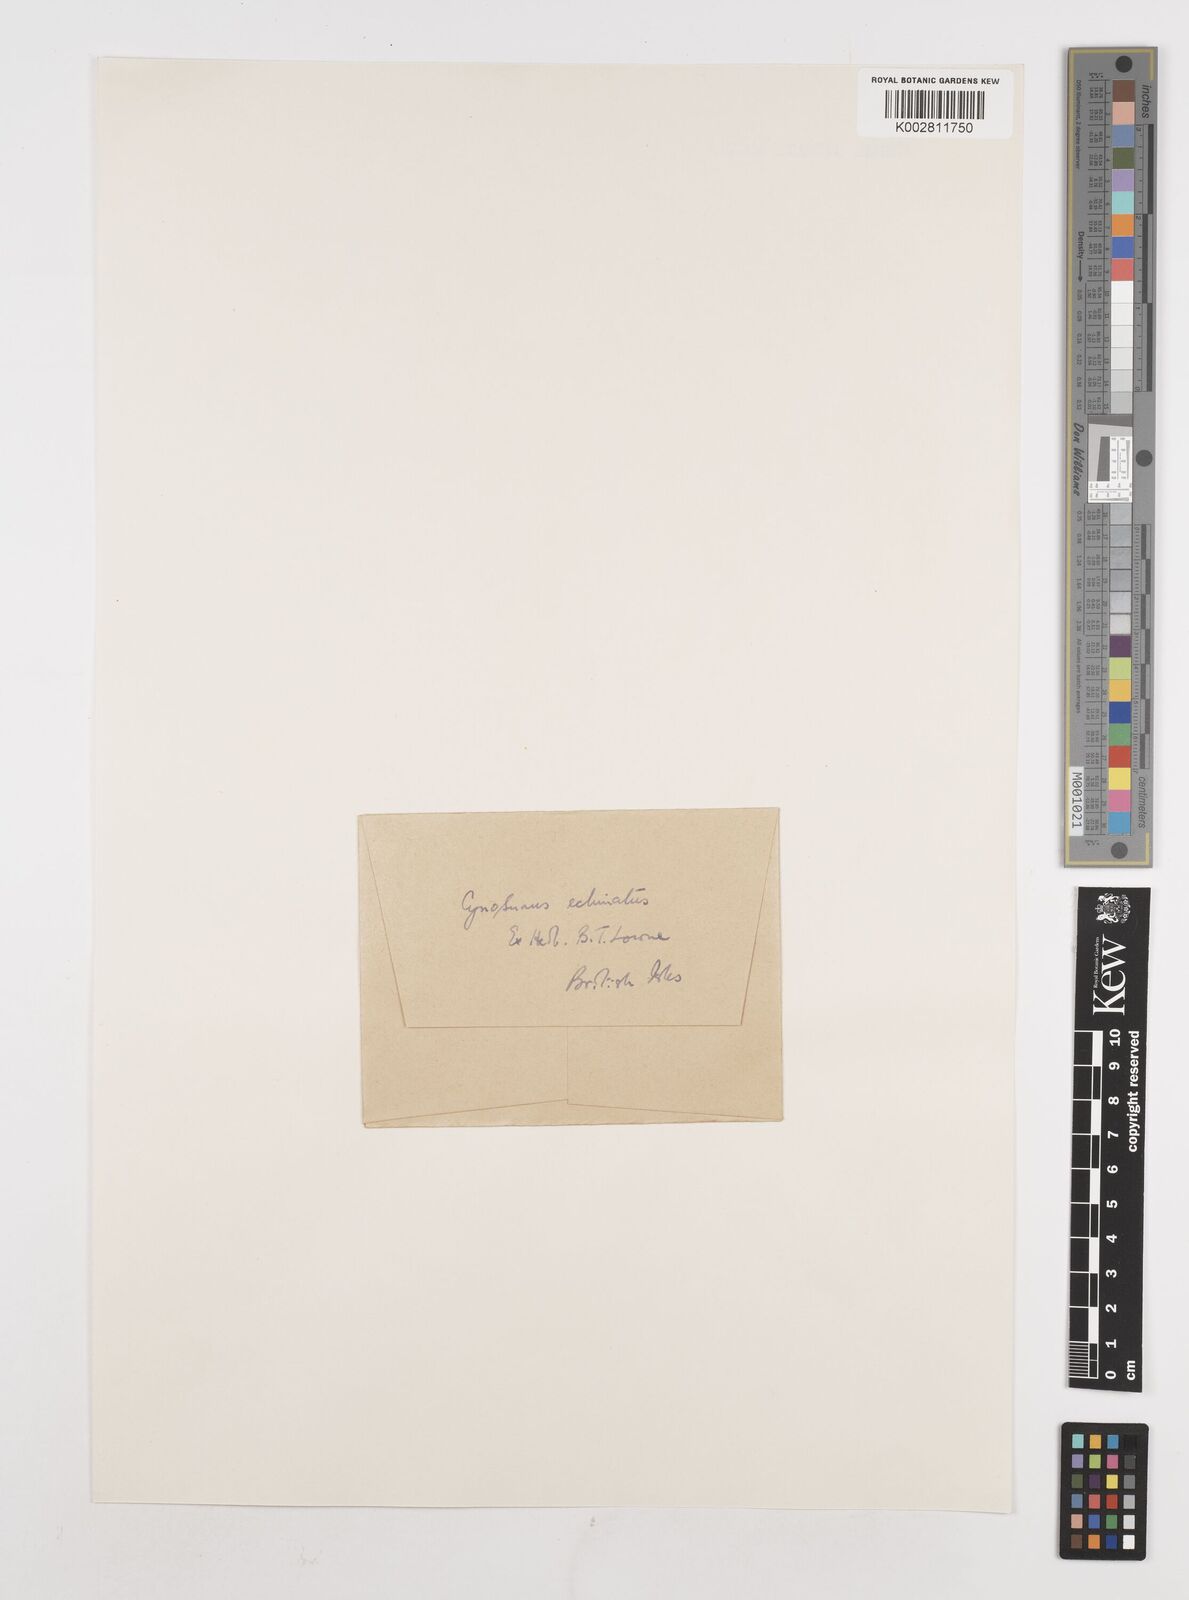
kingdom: Plantae
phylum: Tracheophyta
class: Liliopsida
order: Poales
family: Poaceae
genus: Cynosurus
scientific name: Cynosurus echinatus
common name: Rough dog's-tail
